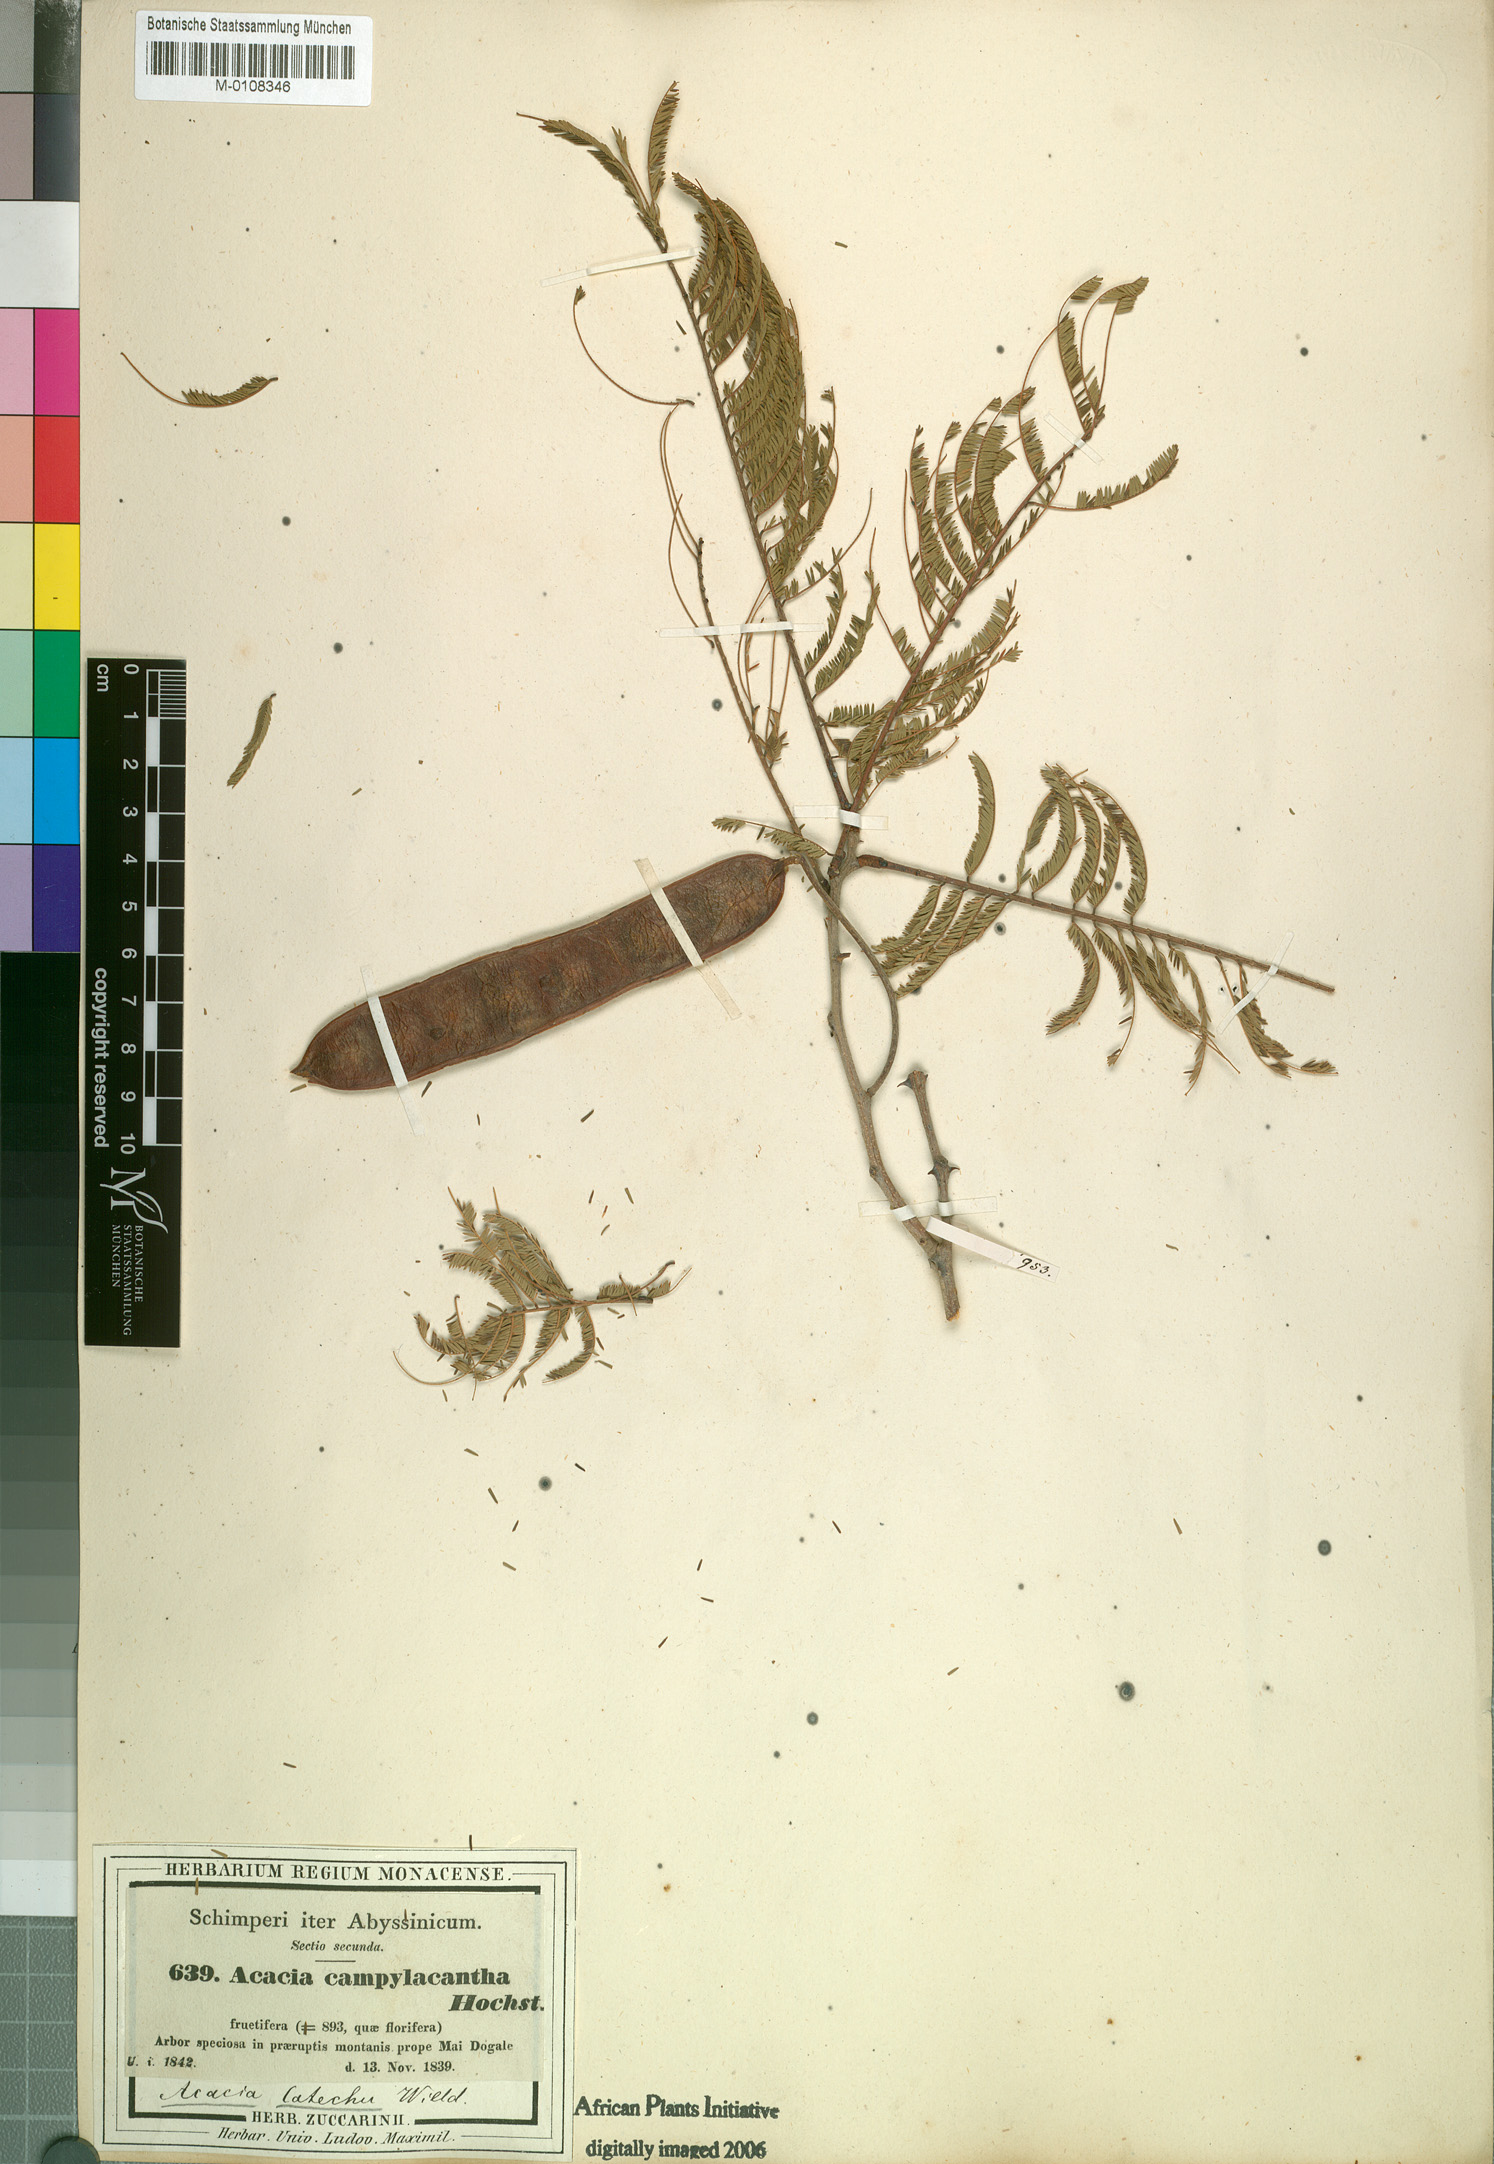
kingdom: Plantae
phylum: Tracheophyta
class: Magnoliopsida
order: Fabales
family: Fabaceae
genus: Senegalia
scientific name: Senegalia polyacantha
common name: Whitethorn
